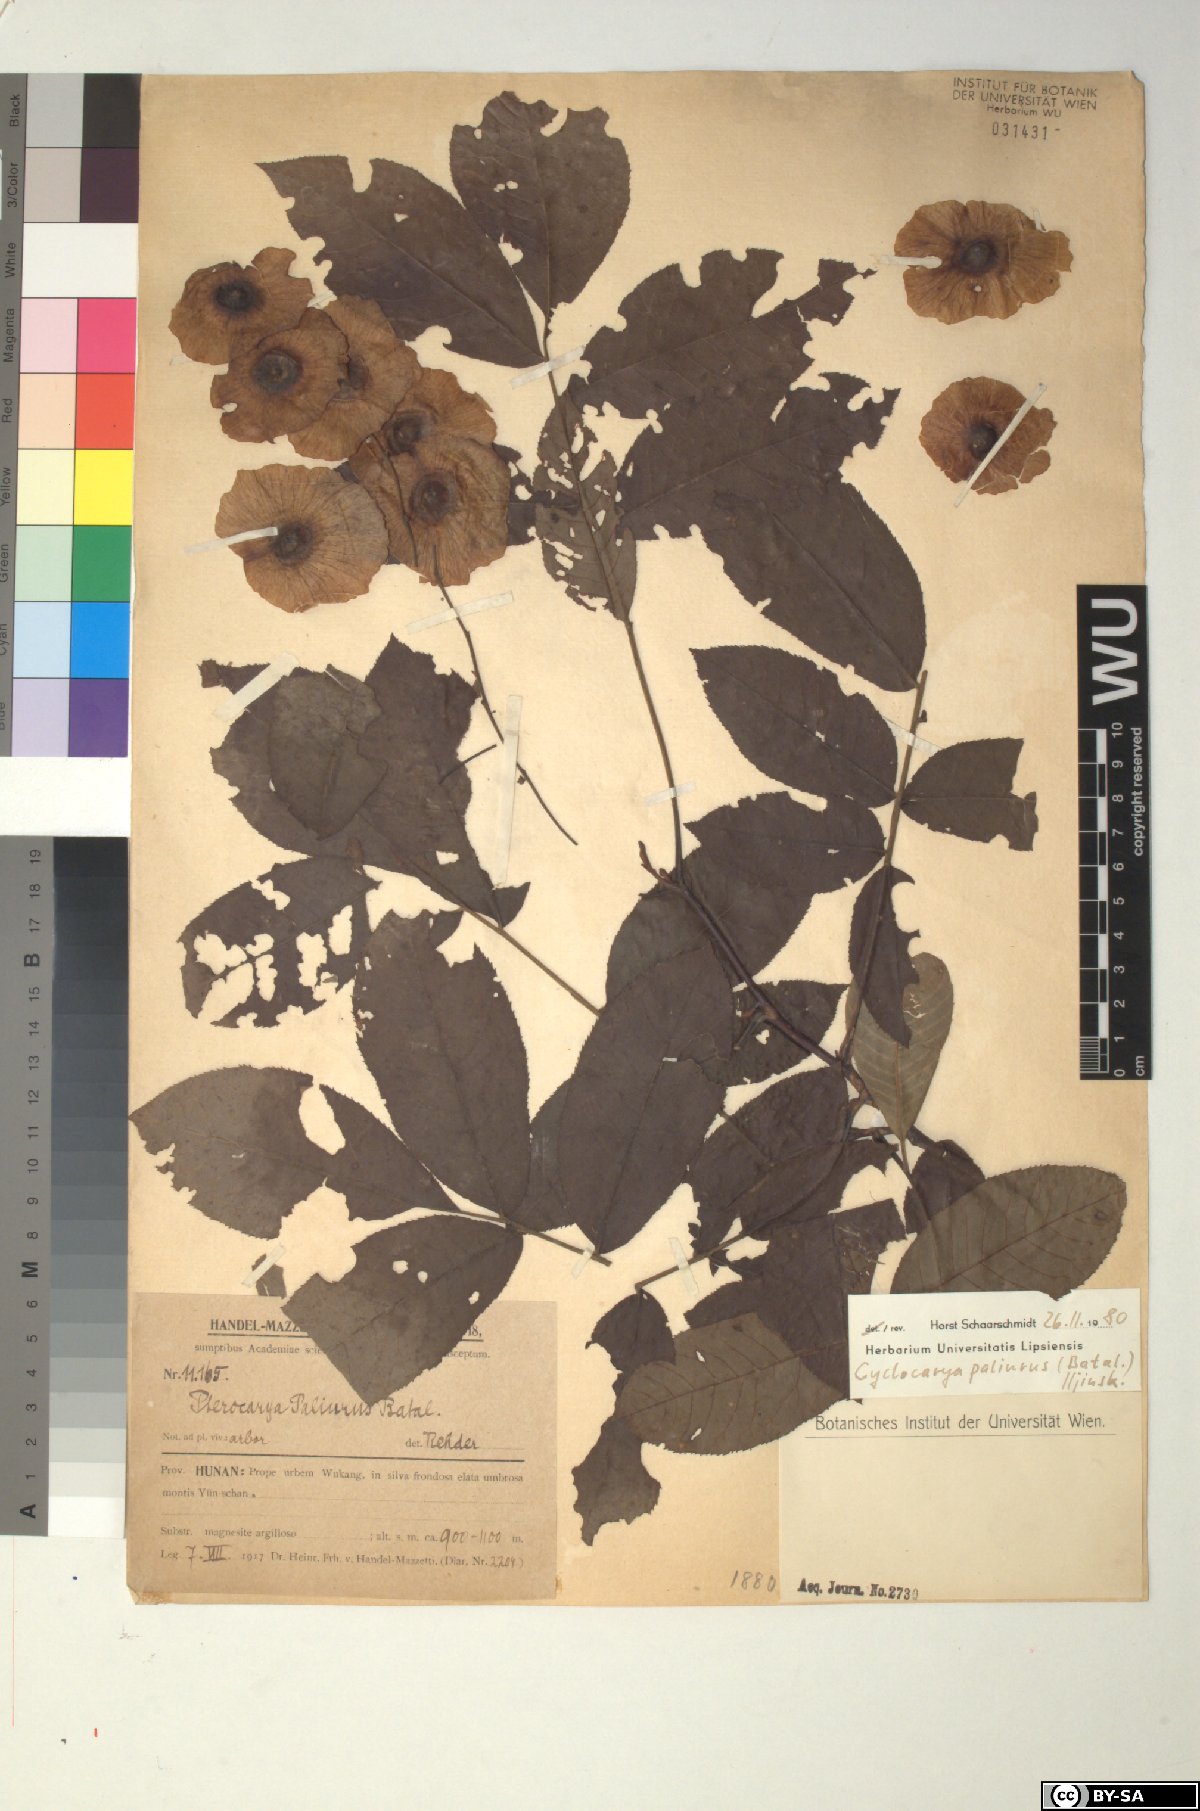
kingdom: Plantae
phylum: Tracheophyta
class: Magnoliopsida
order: Fagales
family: Juglandaceae
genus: Cyclocarya
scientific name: Cyclocarya paliurus
